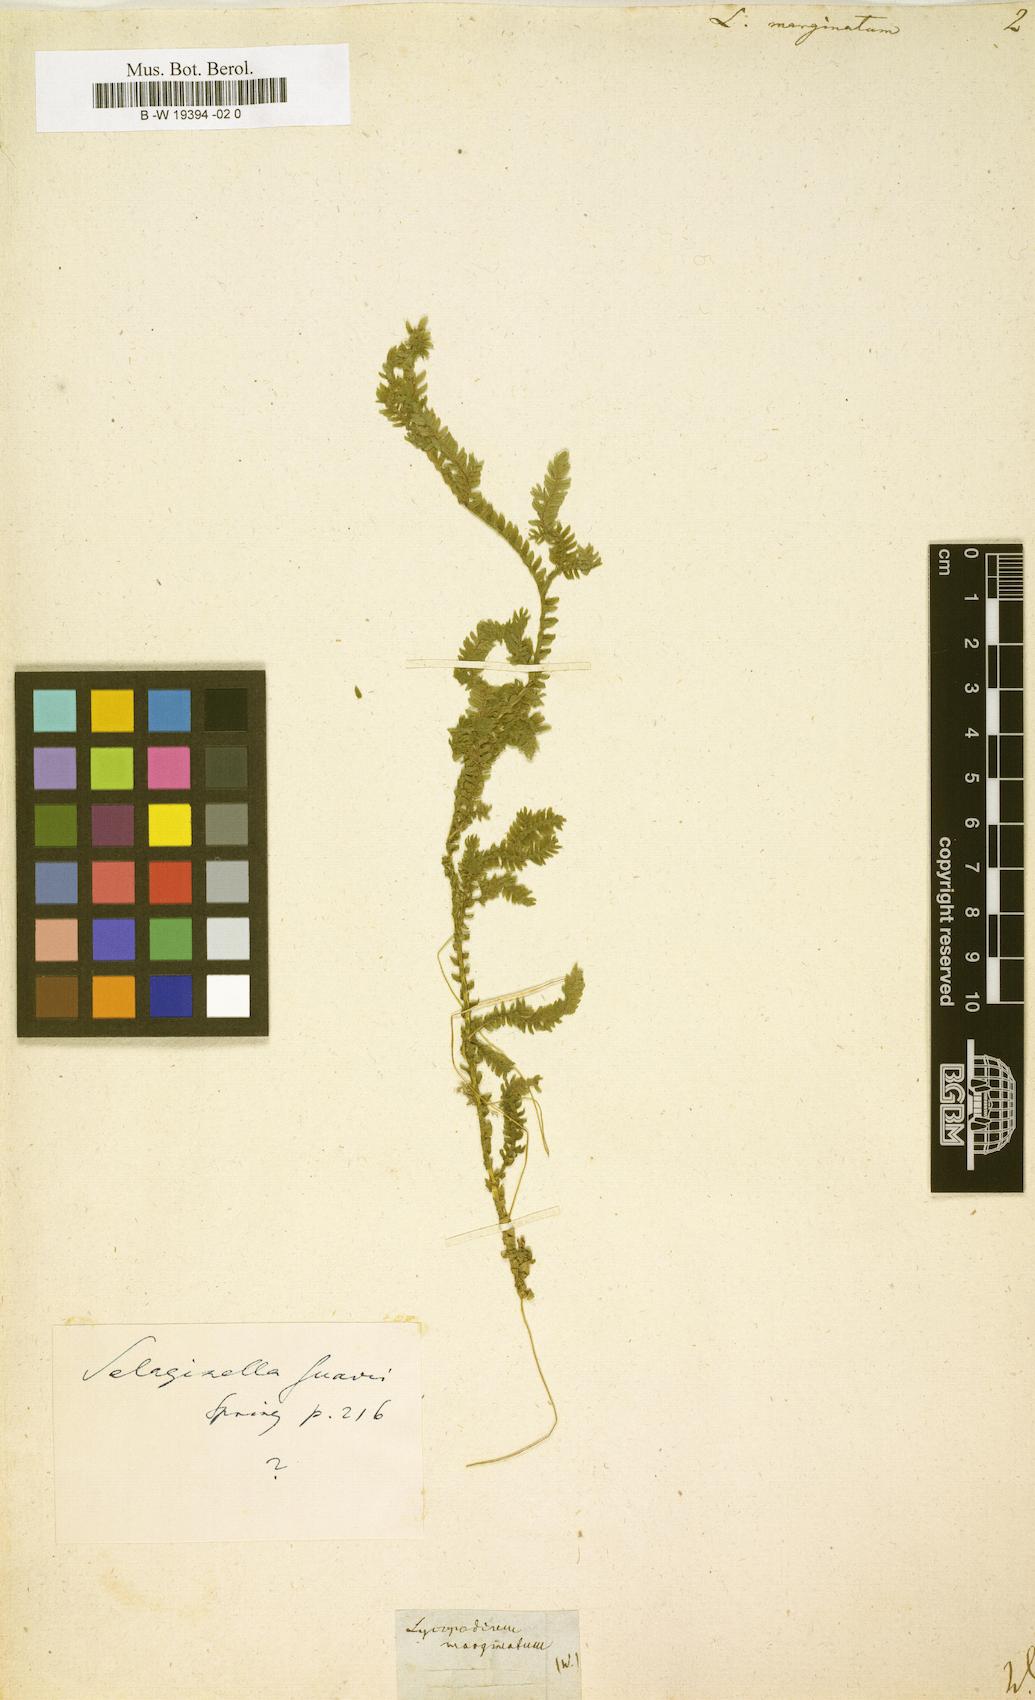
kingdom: Plantae
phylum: Tracheophyta
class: Lycopodiopsida
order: Selaginellales
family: Selaginellaceae
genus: Selaginella
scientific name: Selaginella marginata
